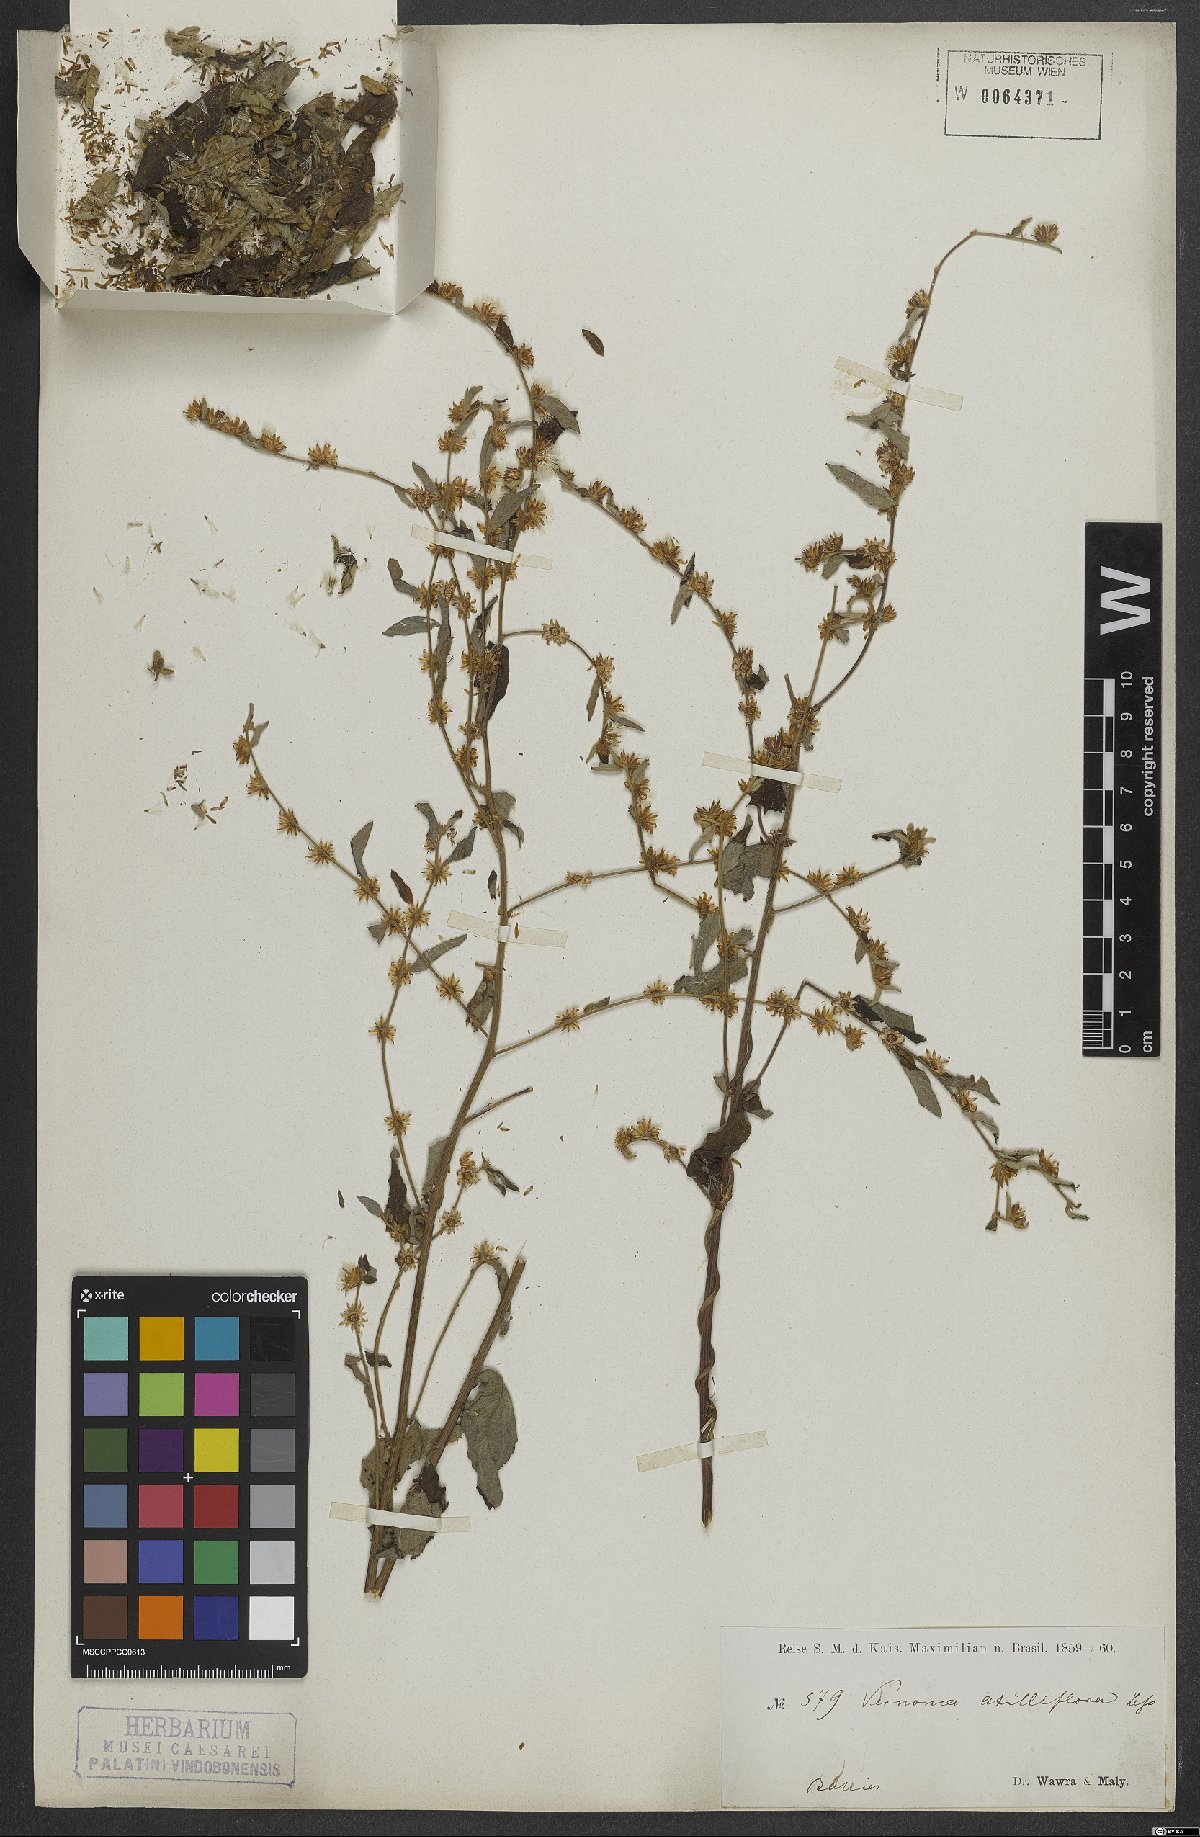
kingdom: Plantae
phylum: Tracheophyta
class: Magnoliopsida
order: Asterales
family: Asteraceae
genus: Lepidaploa
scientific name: Lepidaploa cotoneaster
